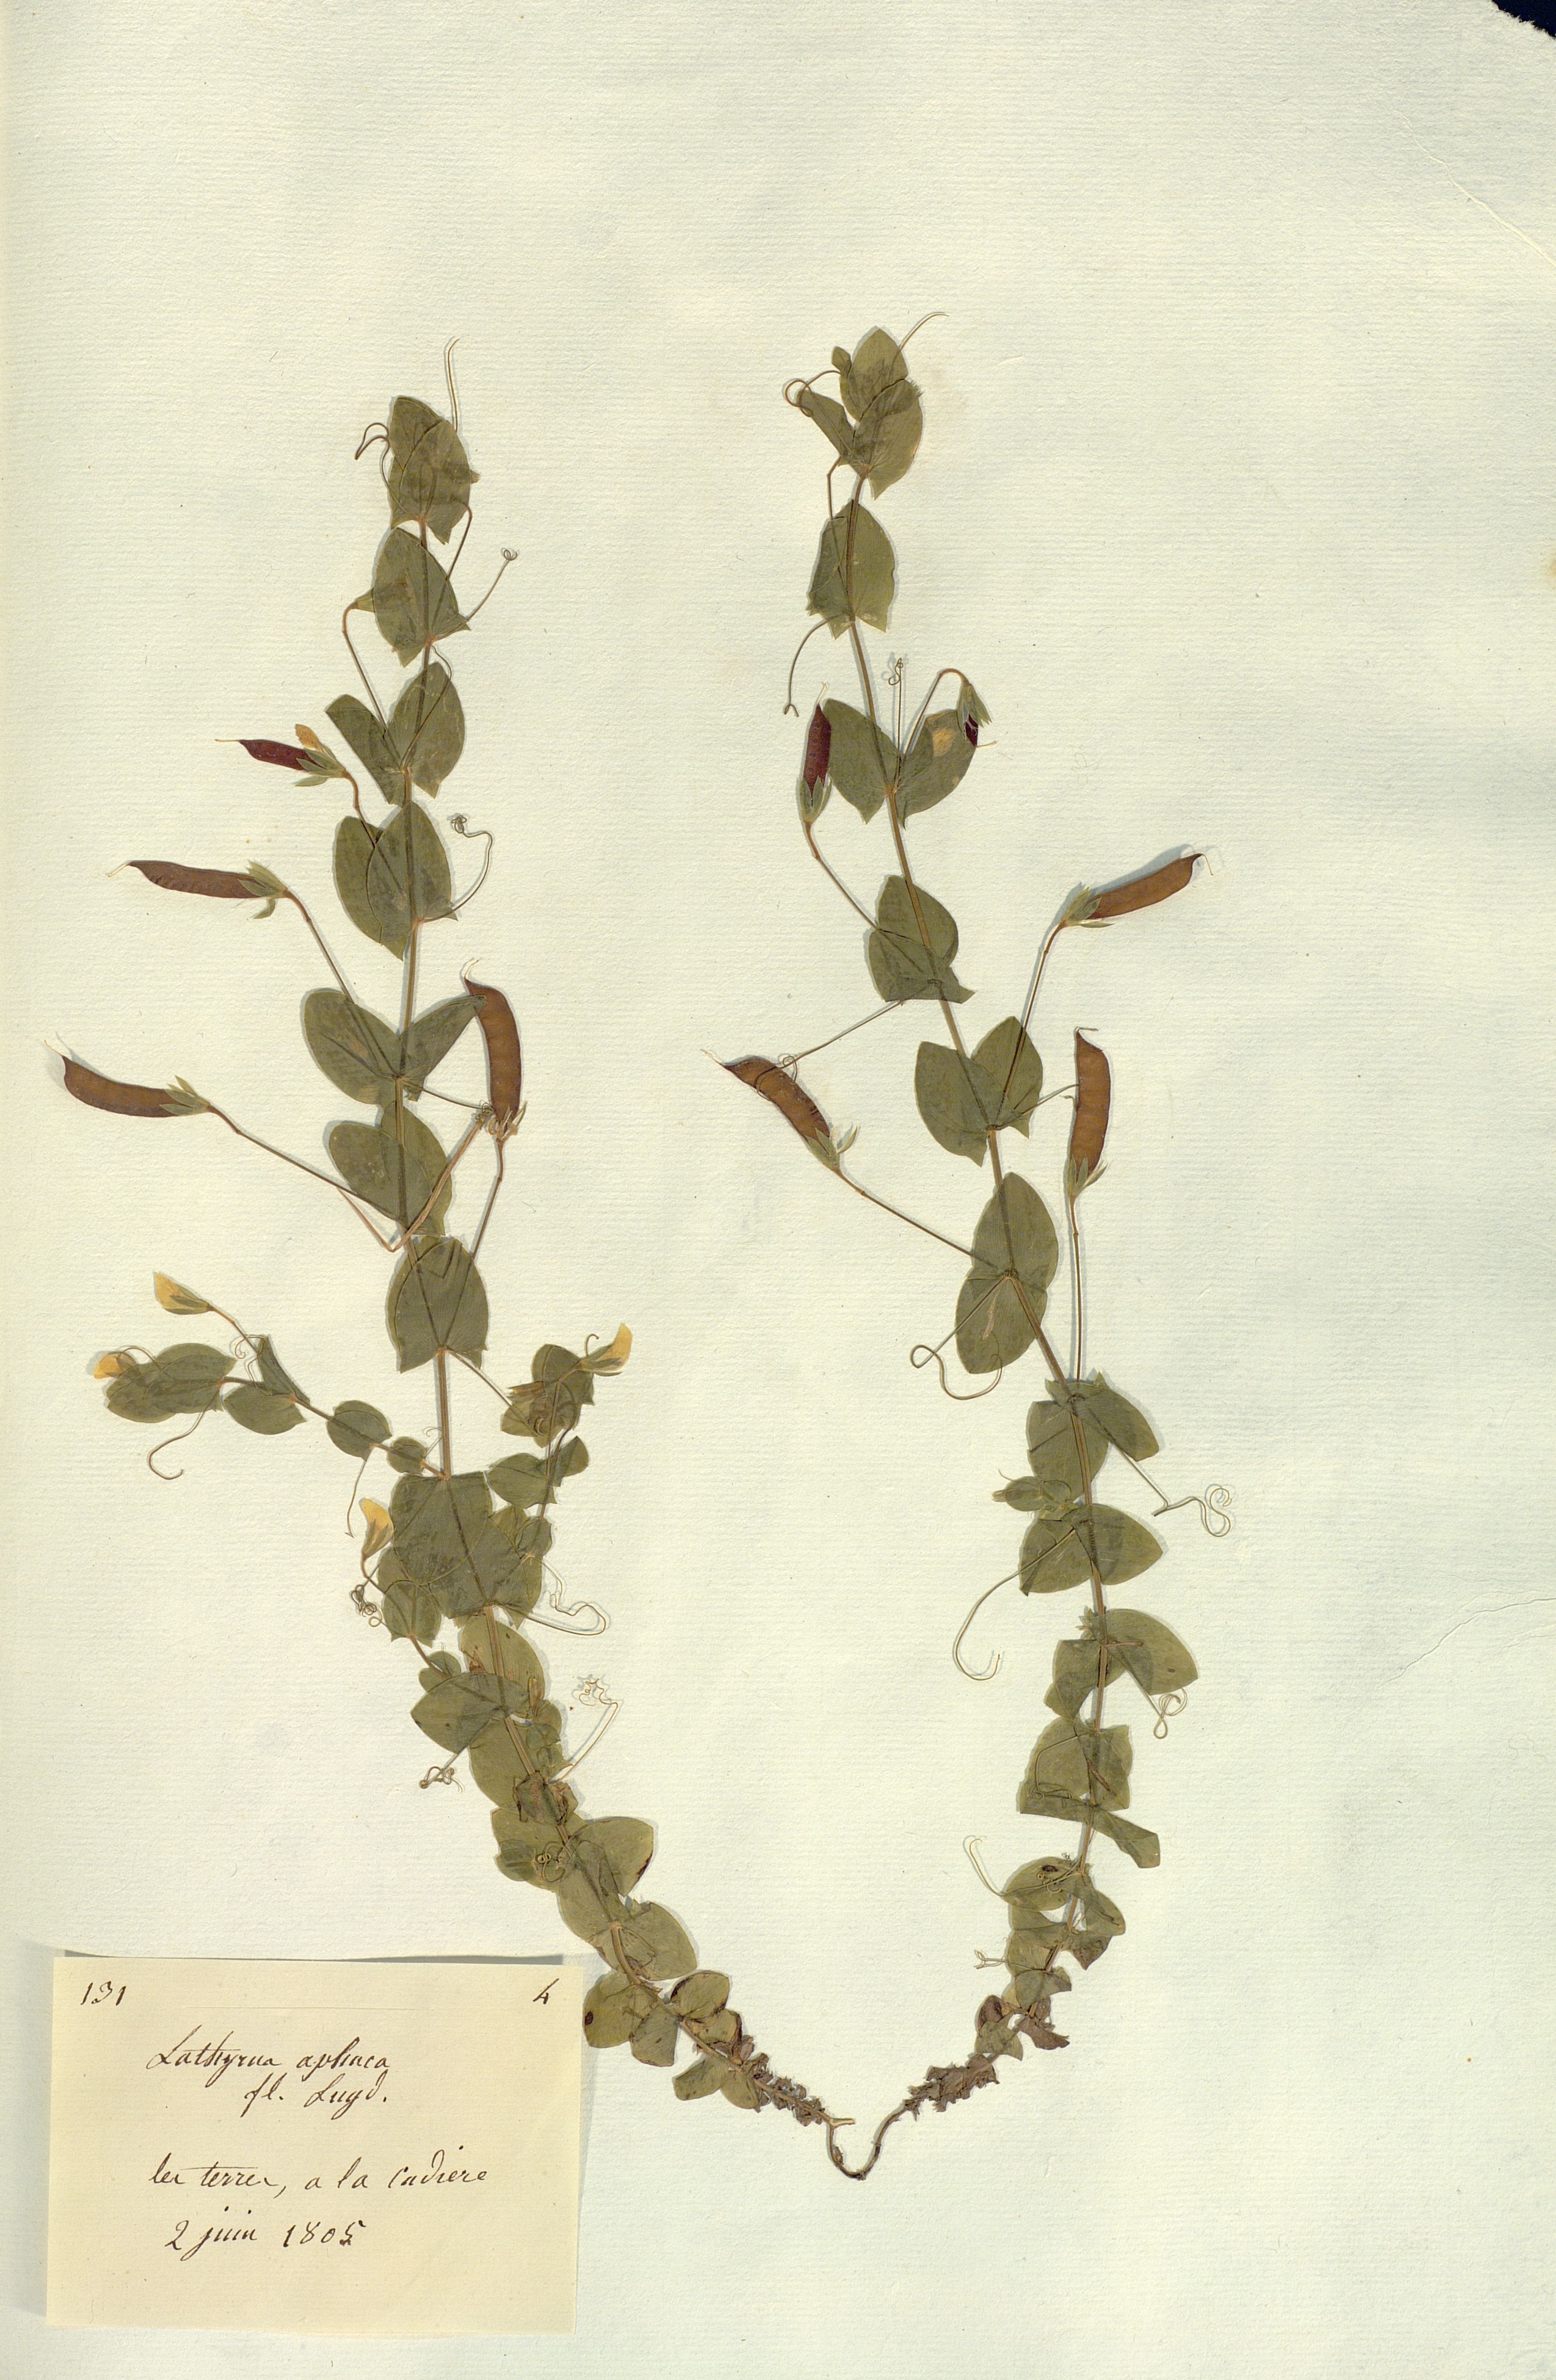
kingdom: Plantae
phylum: Tracheophyta
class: Magnoliopsida
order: Fabales
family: Fabaceae
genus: Lathyrus
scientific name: Lathyrus aphaca
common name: Yellow vetchling
